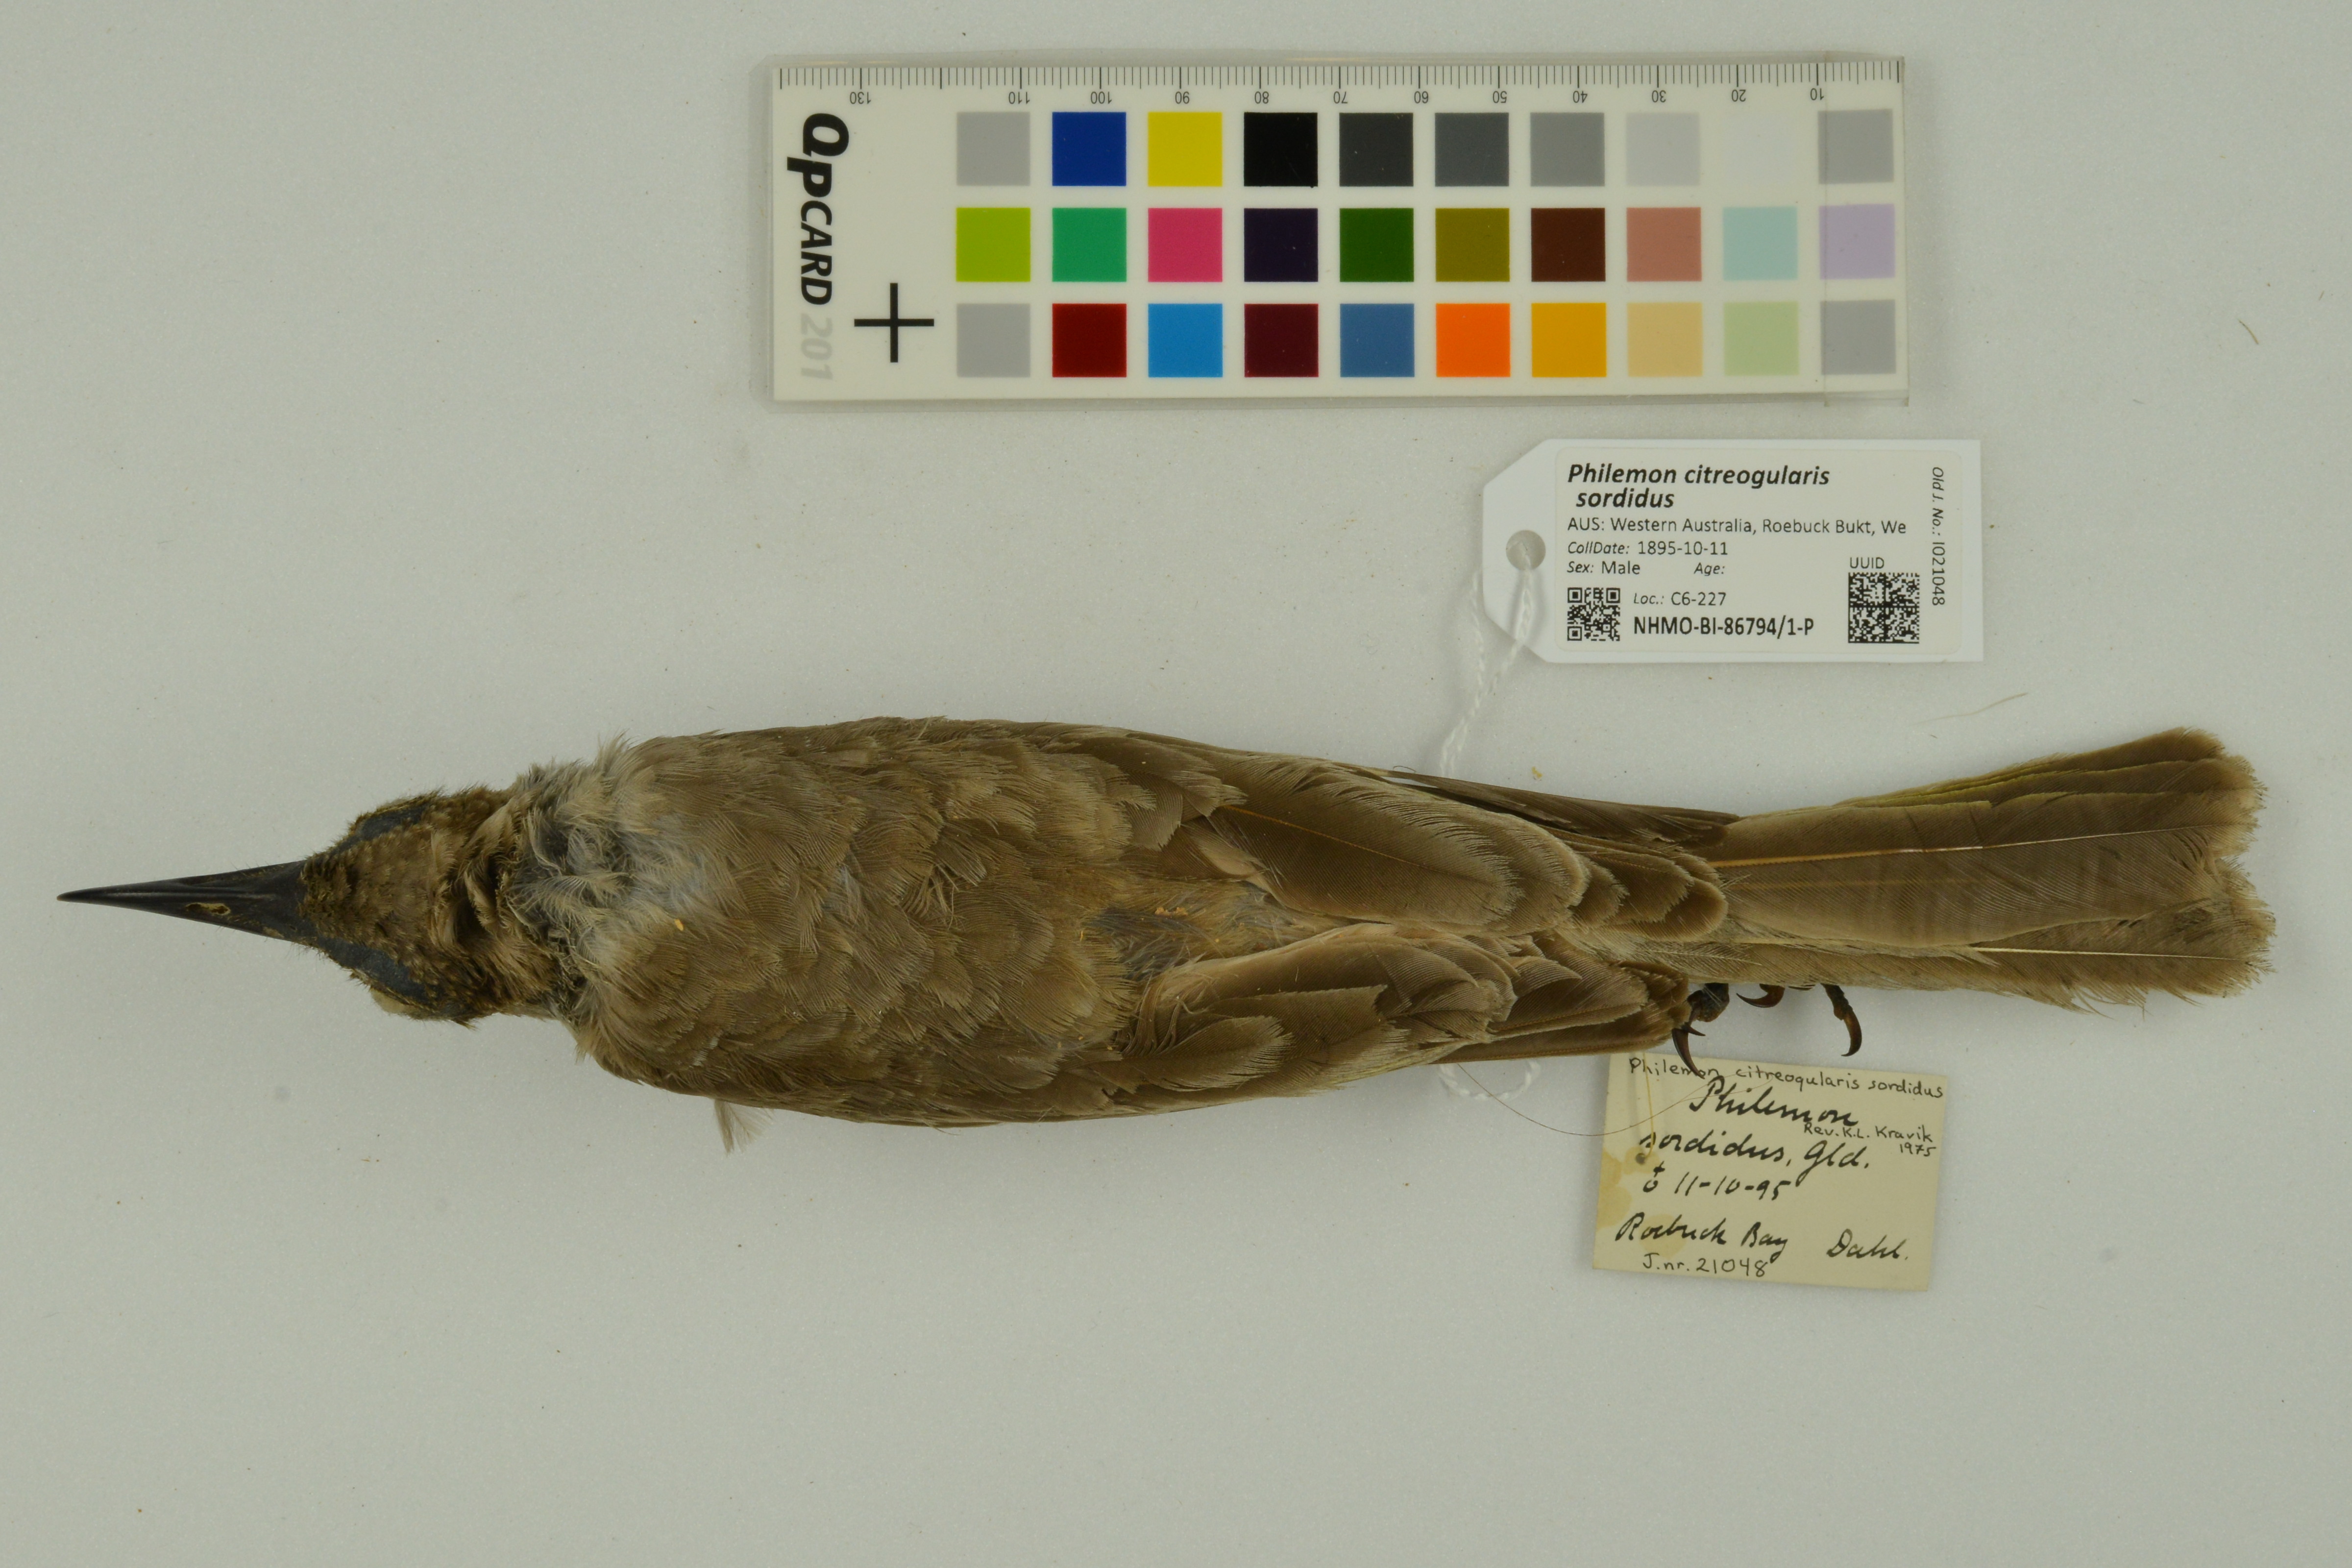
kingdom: Animalia
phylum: Chordata
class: Aves
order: Passeriformes
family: Meliphagidae
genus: Philemon
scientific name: Philemon citreogularis
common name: Little friarbird
